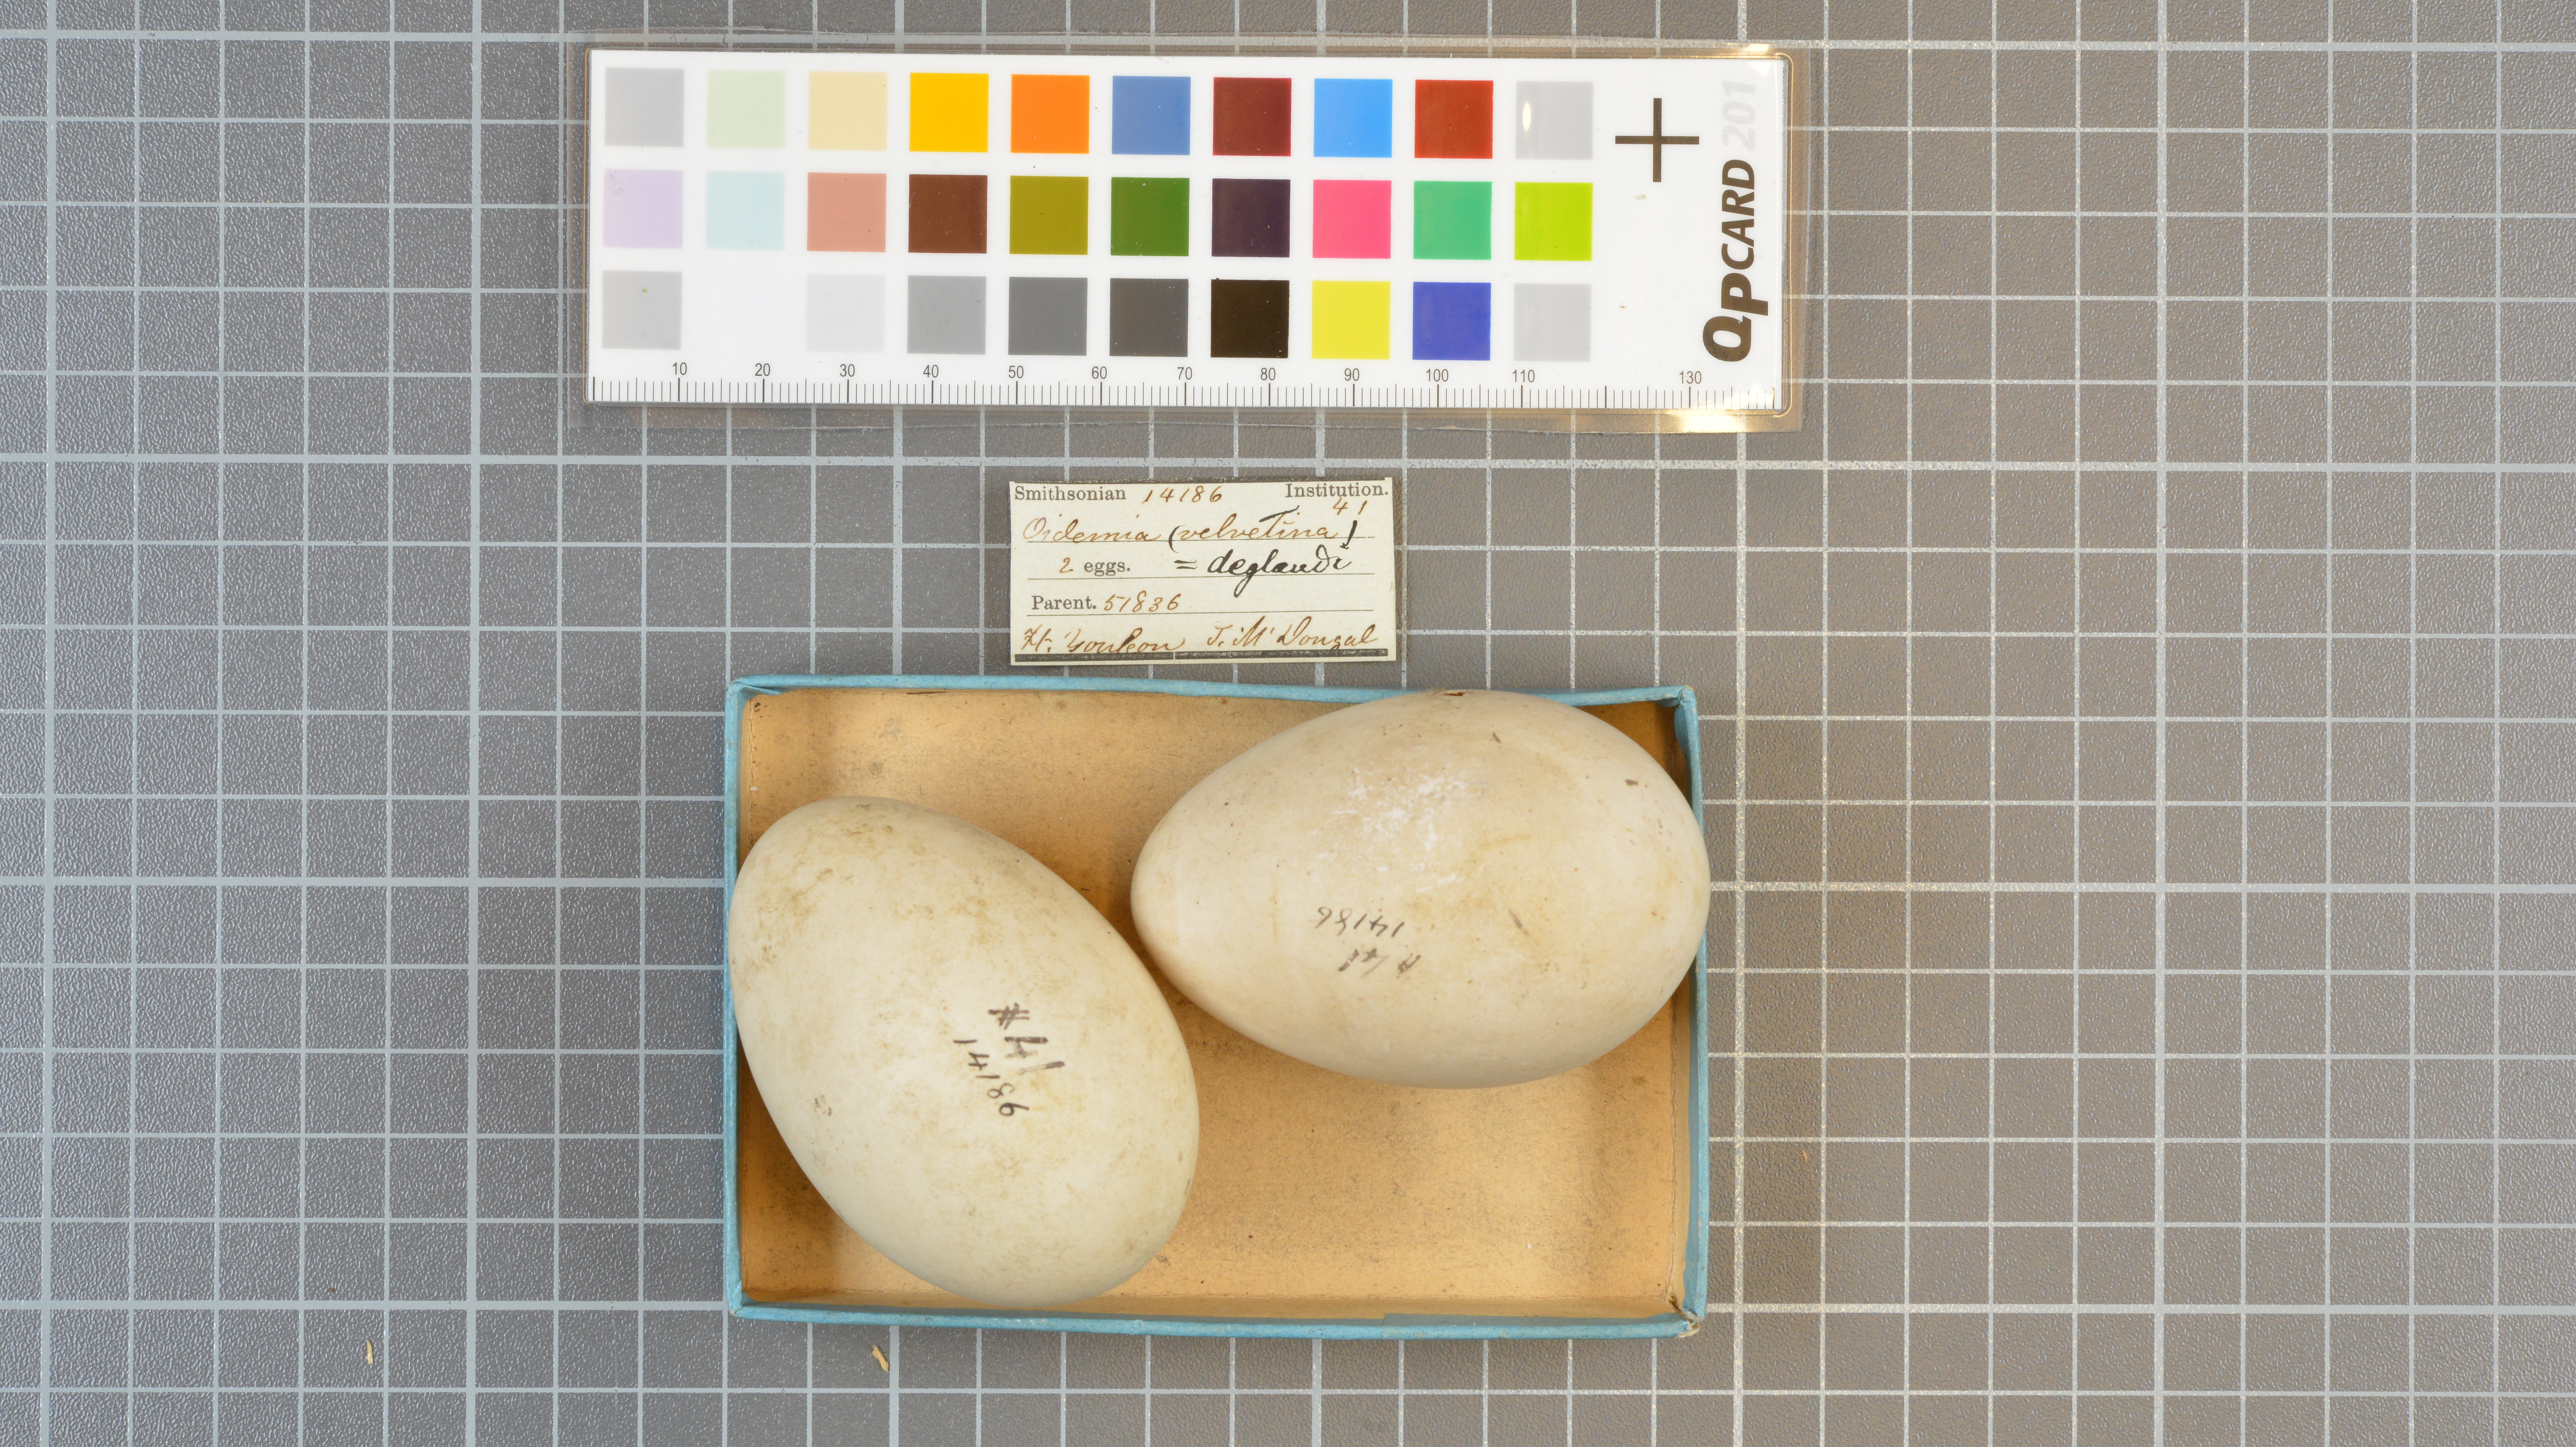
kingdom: Animalia
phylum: Chordata
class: Aves
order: Anseriformes
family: Anatidae
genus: Melanitta
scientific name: Melanitta deglandi
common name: White-winged scoter
